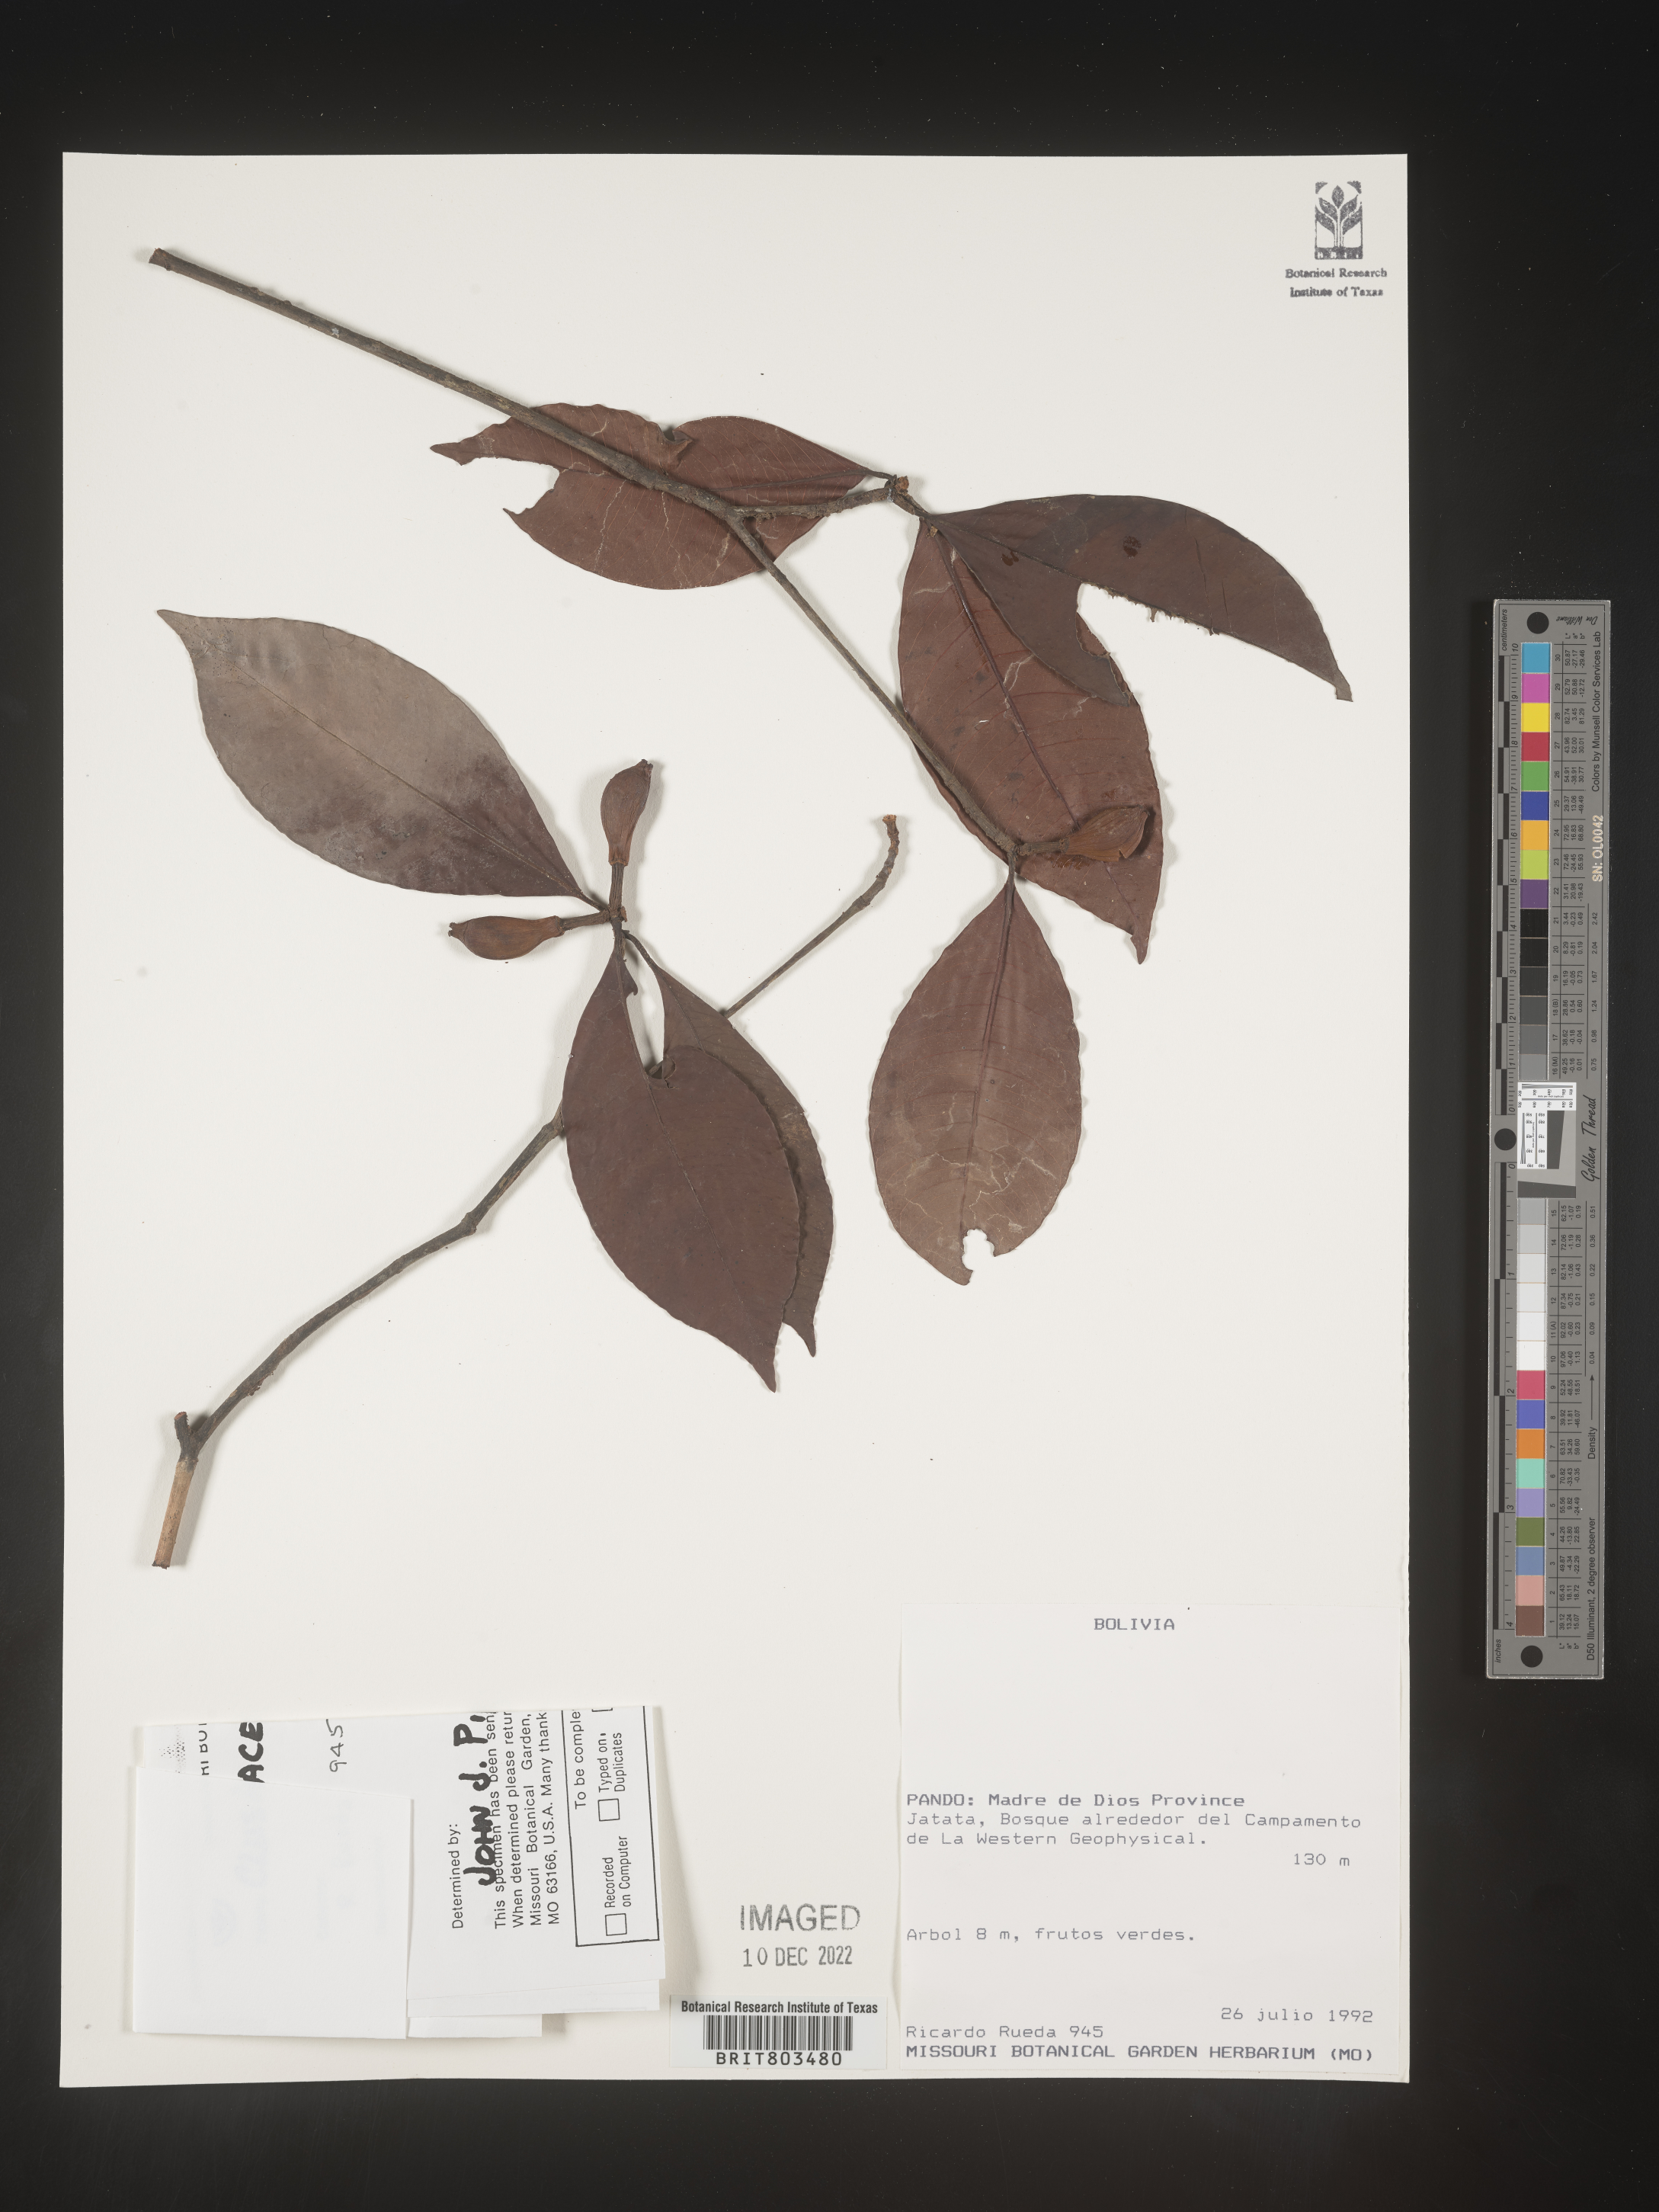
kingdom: Plantae
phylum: Tracheophyta
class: Magnoliopsida
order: Malpighiales
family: Clusiaceae
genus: Tovomita
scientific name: Tovomita
